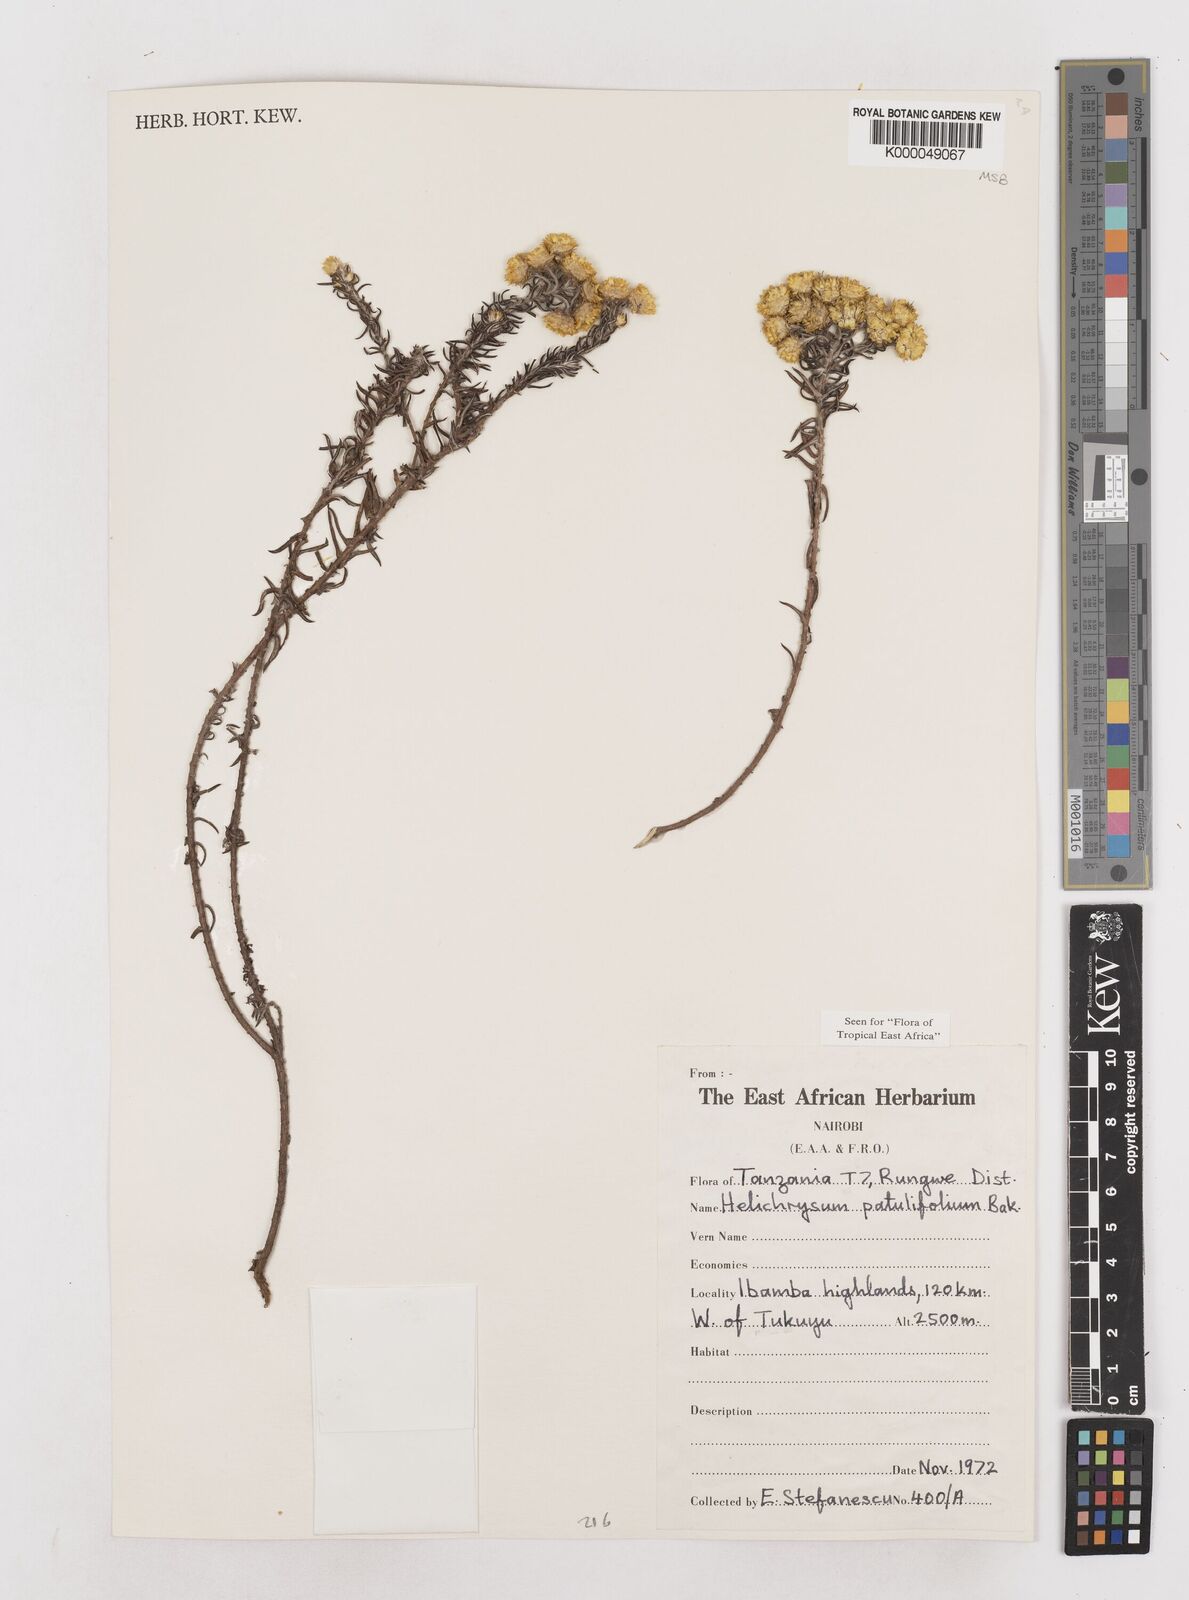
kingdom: Plantae
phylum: Tracheophyta
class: Magnoliopsida
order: Asterales
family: Asteraceae
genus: Helichrysum
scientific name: Helichrysum patulifolium
